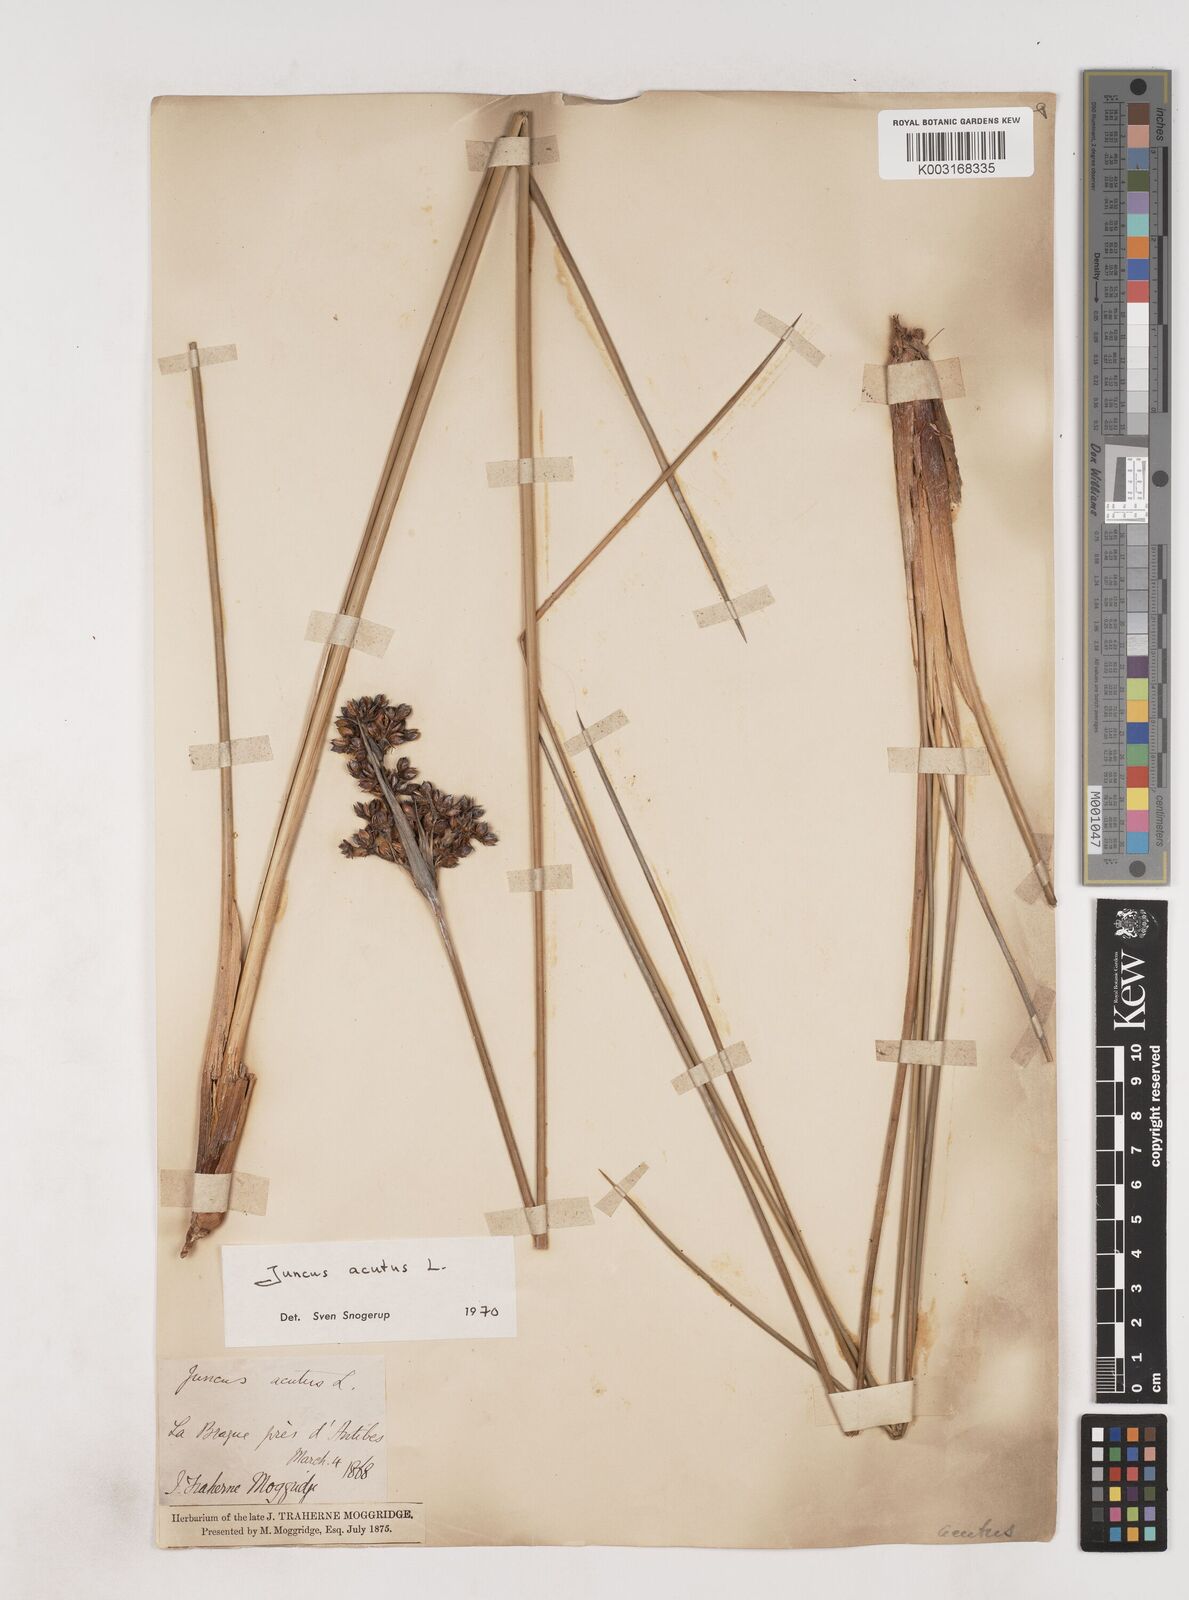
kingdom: Plantae
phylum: Tracheophyta
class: Liliopsida
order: Poales
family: Juncaceae
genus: Juncus
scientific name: Juncus acutus
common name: Sharp rush
